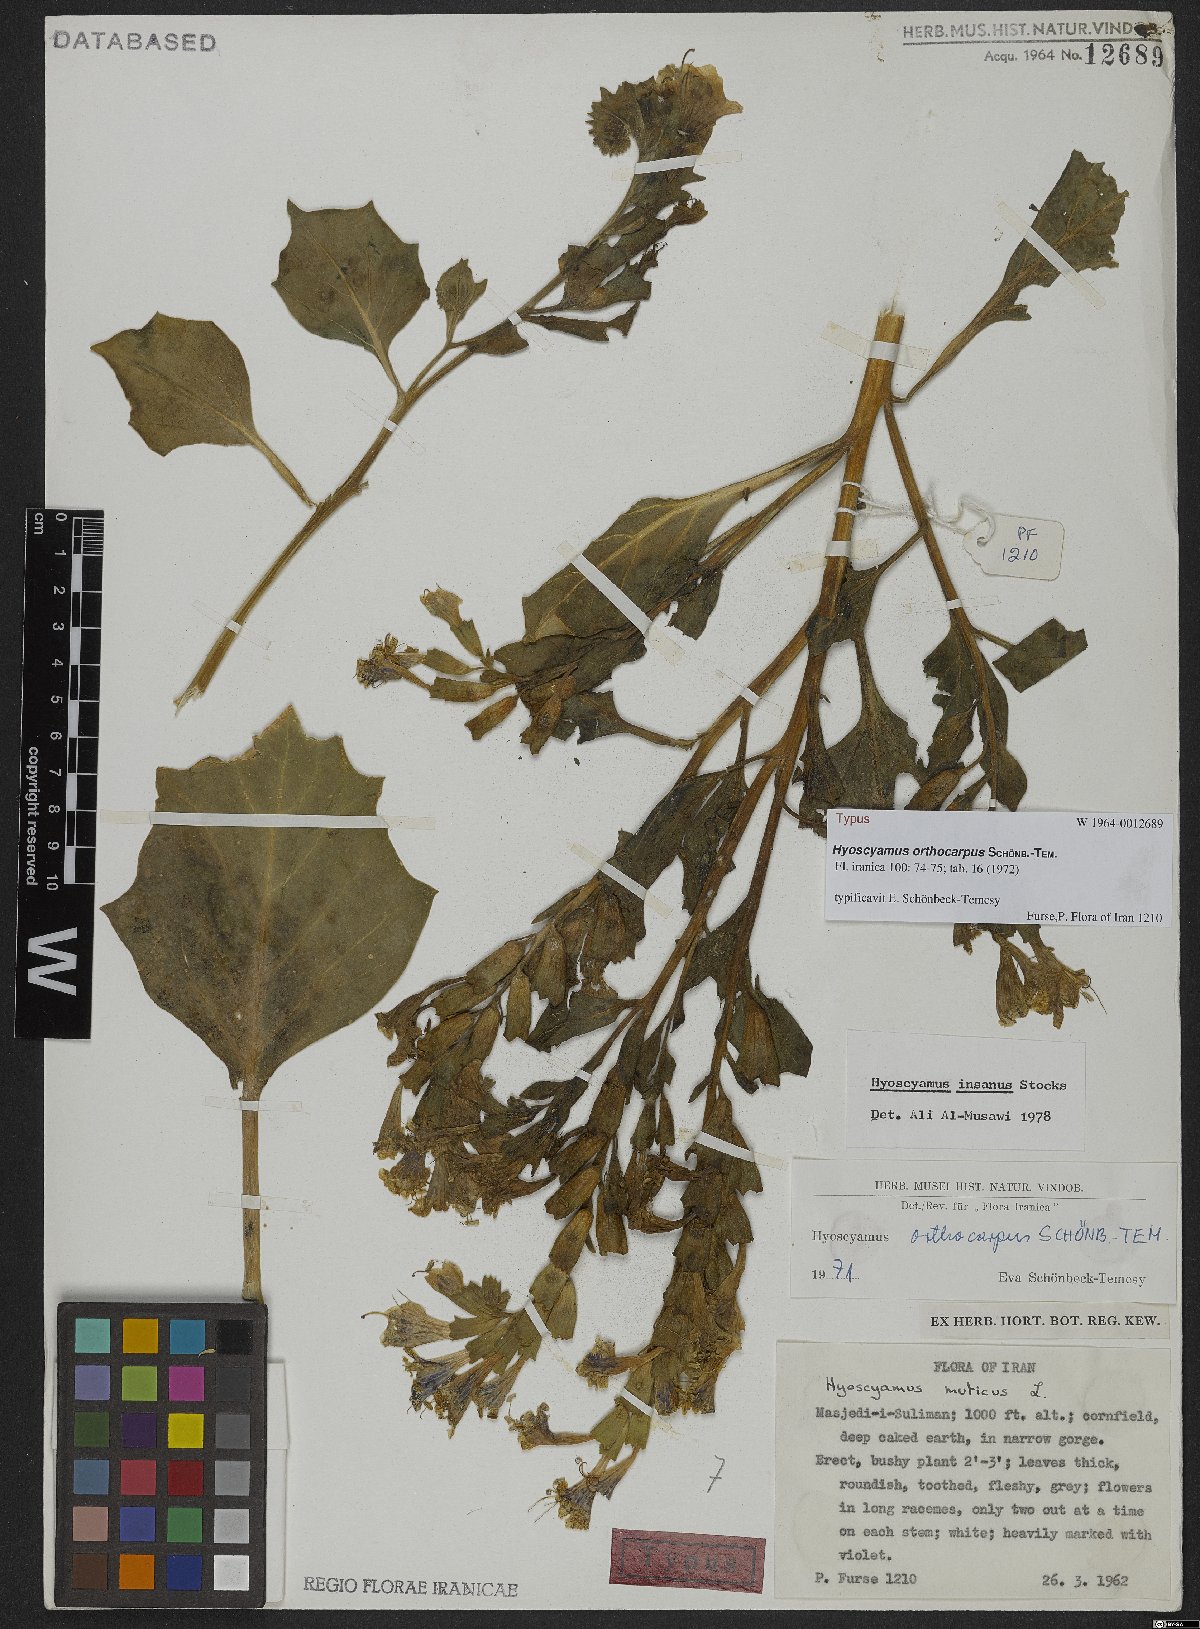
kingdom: Plantae
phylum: Tracheophyta
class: Magnoliopsida
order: Solanales
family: Solanaceae
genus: Hyoscyamus
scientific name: Hyoscyamus orthocarpus
